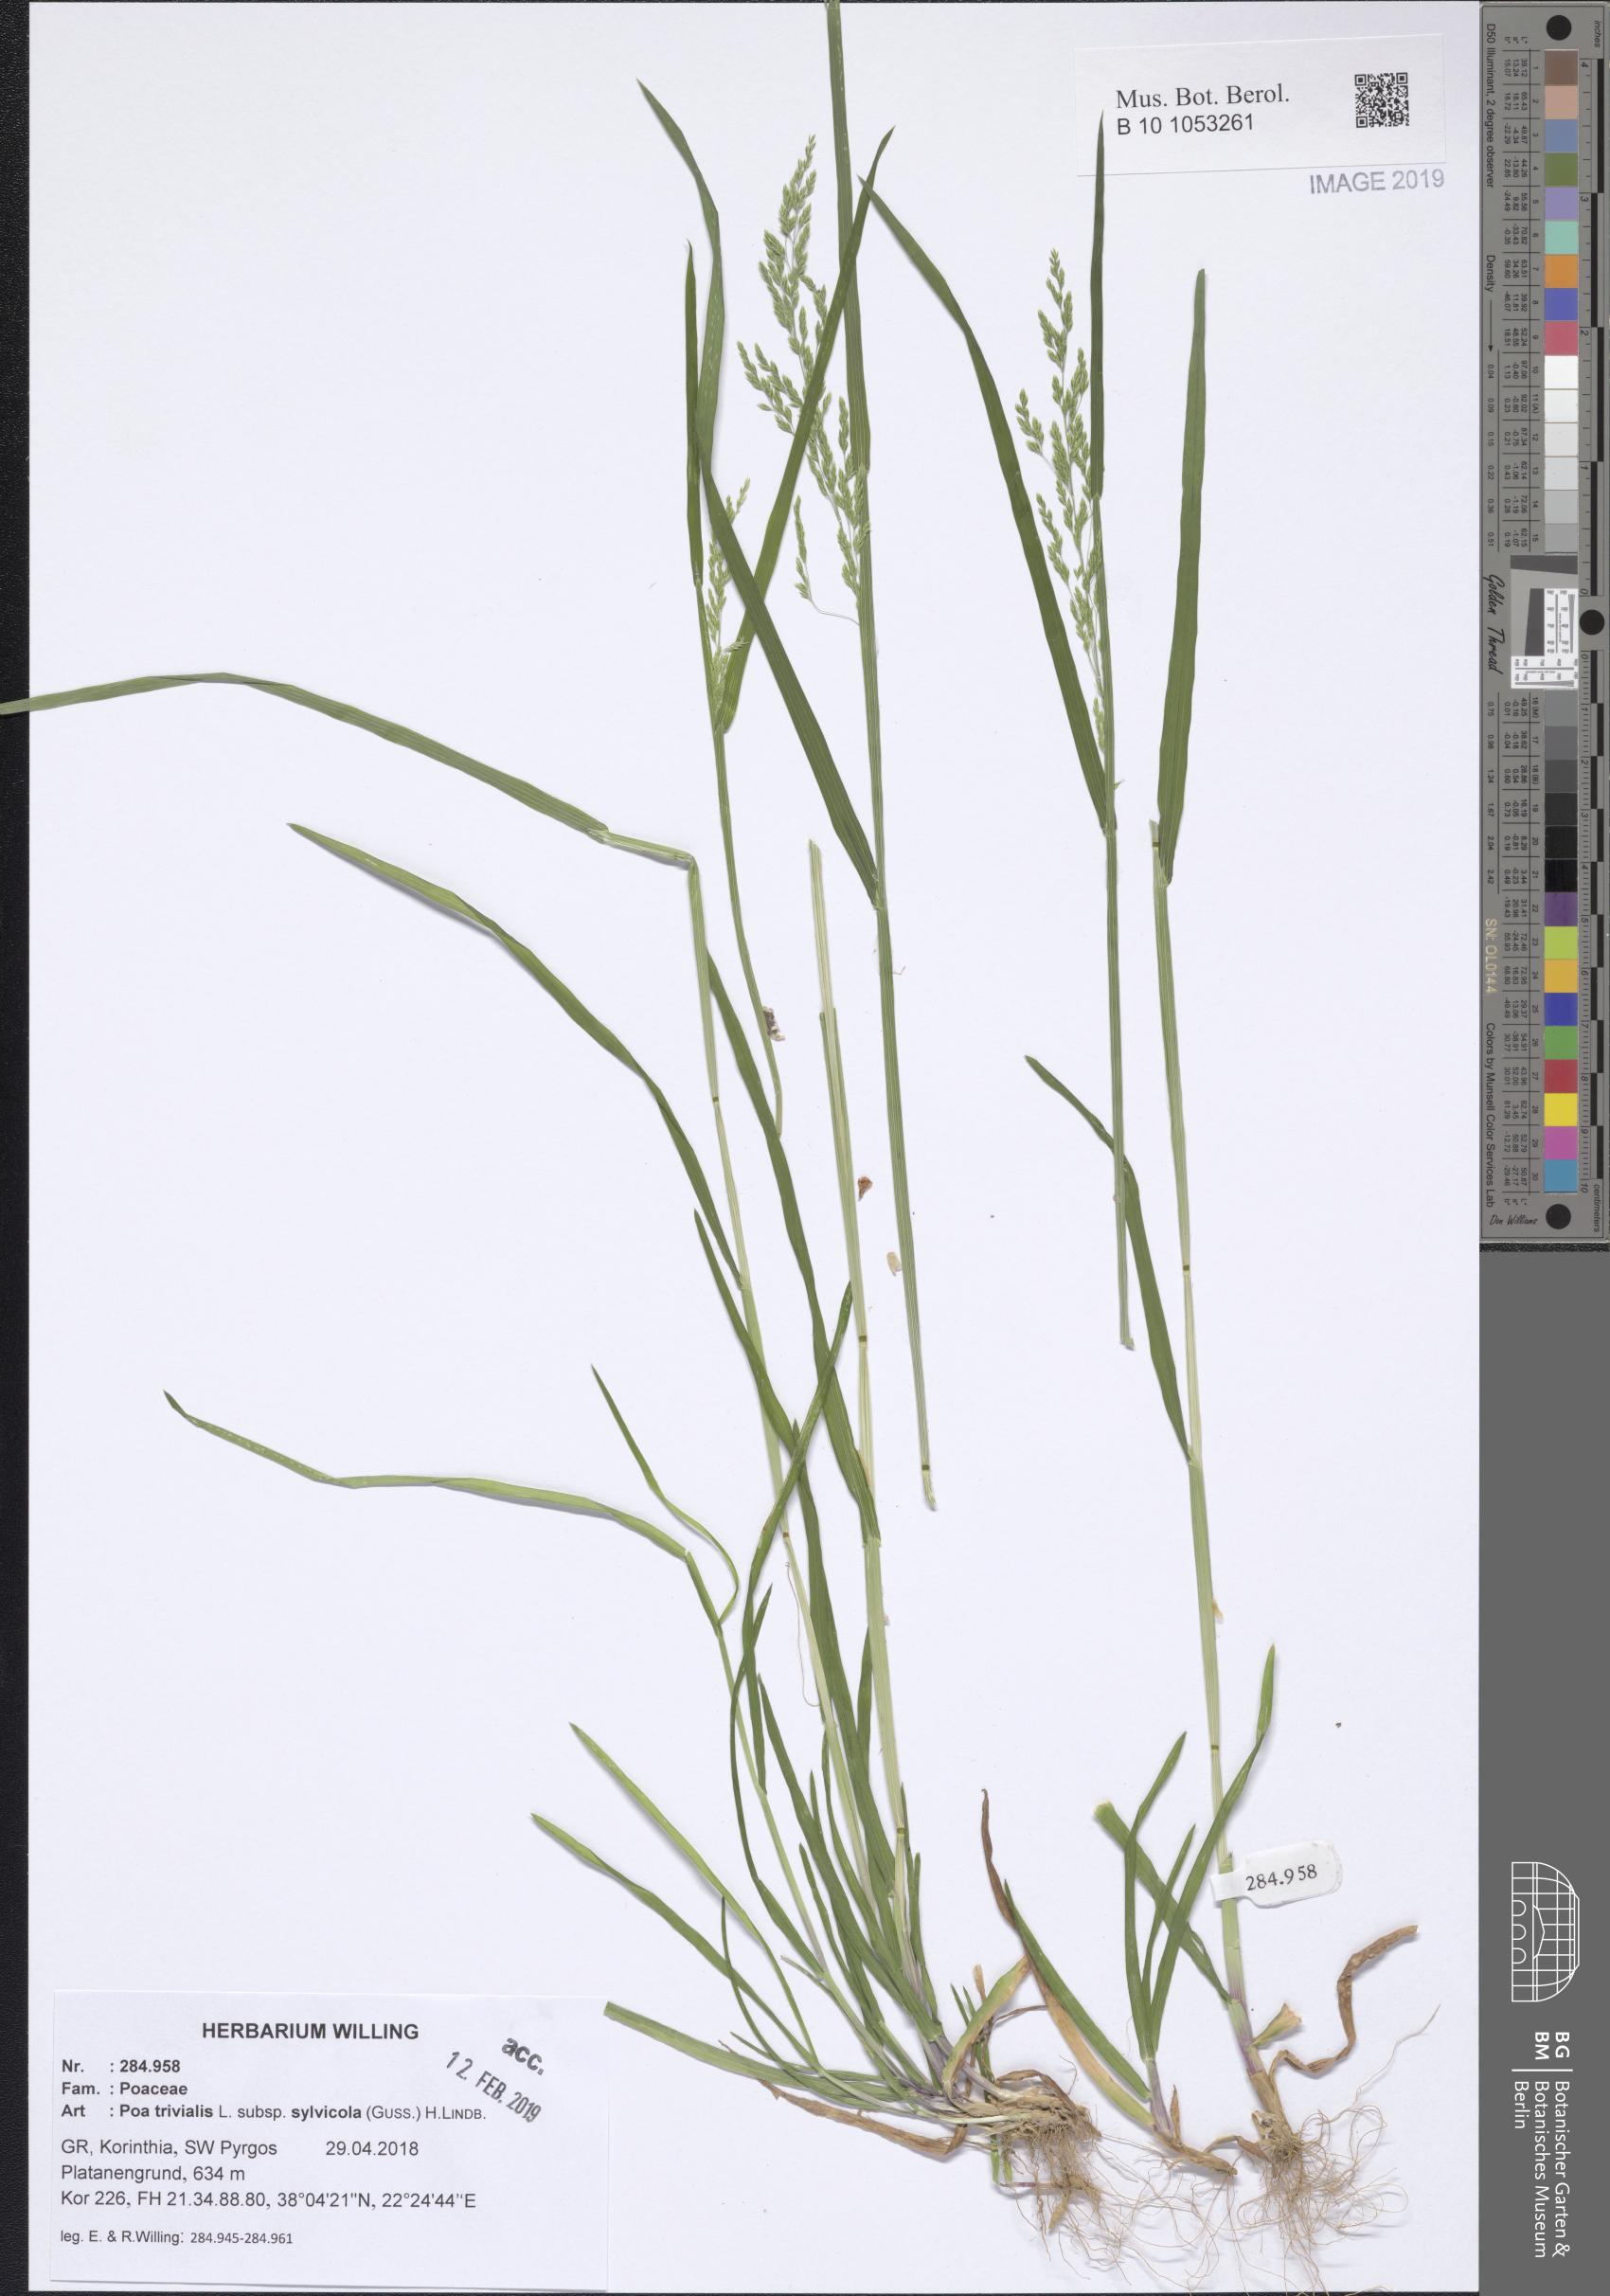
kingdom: Plantae
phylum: Tracheophyta
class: Liliopsida
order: Poales
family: Poaceae
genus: Poa
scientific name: Poa trivialis
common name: Rough bluegrass
